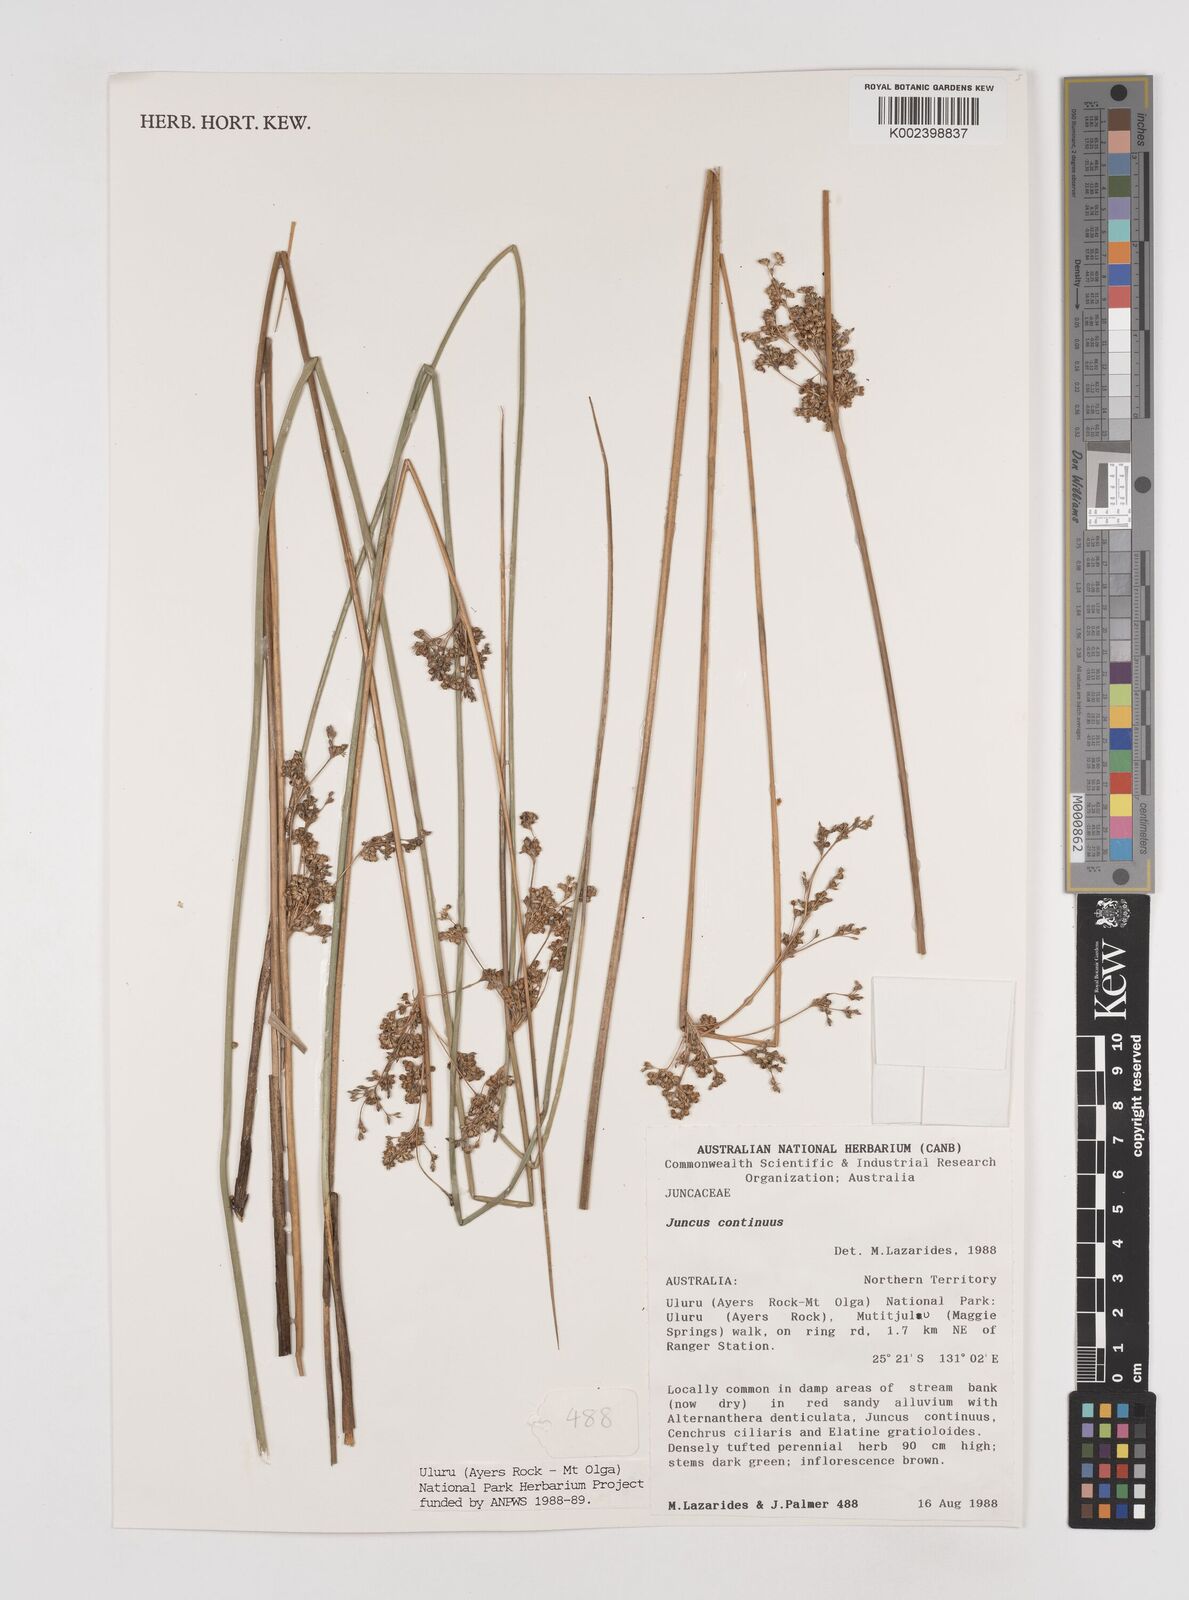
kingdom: Plantae
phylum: Tracheophyta
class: Liliopsida
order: Poales
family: Juncaceae
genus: Juncus
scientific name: Juncus continuus
